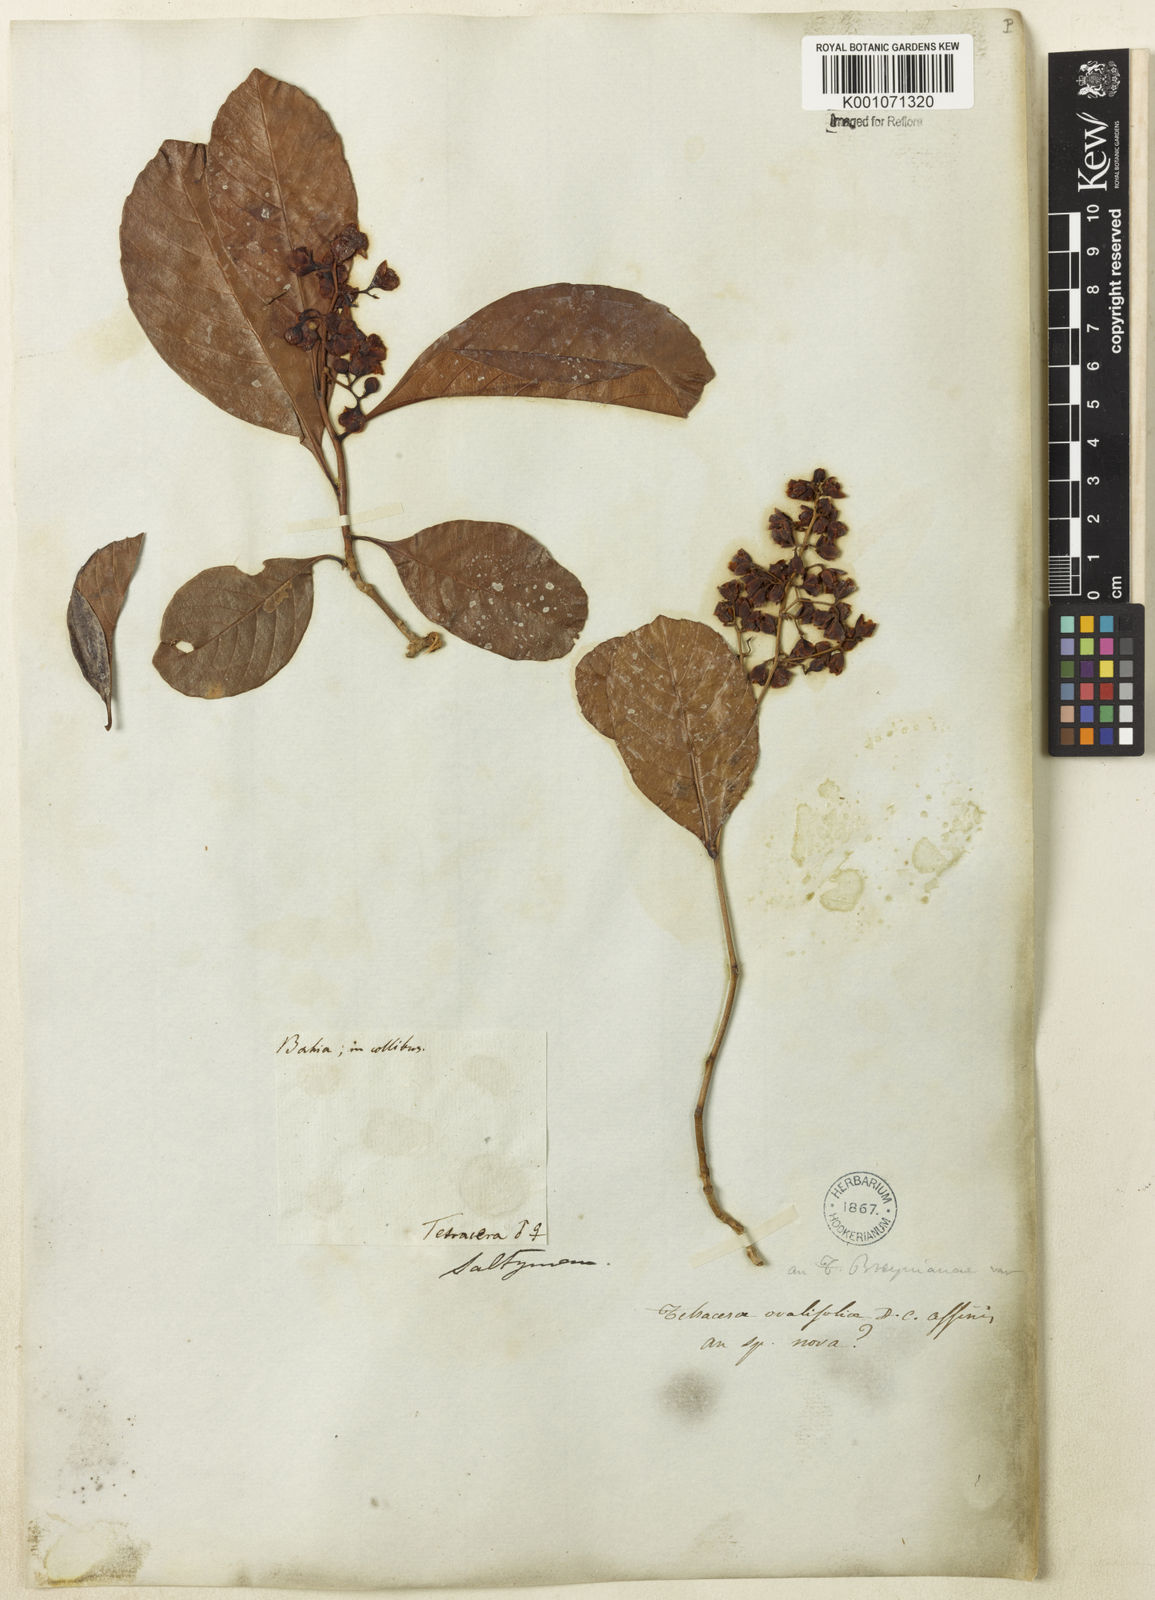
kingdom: Plantae
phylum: Tracheophyta
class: Magnoliopsida
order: Dilleniales
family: Dilleniaceae
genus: Tetracera
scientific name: Tetracera breyniana
